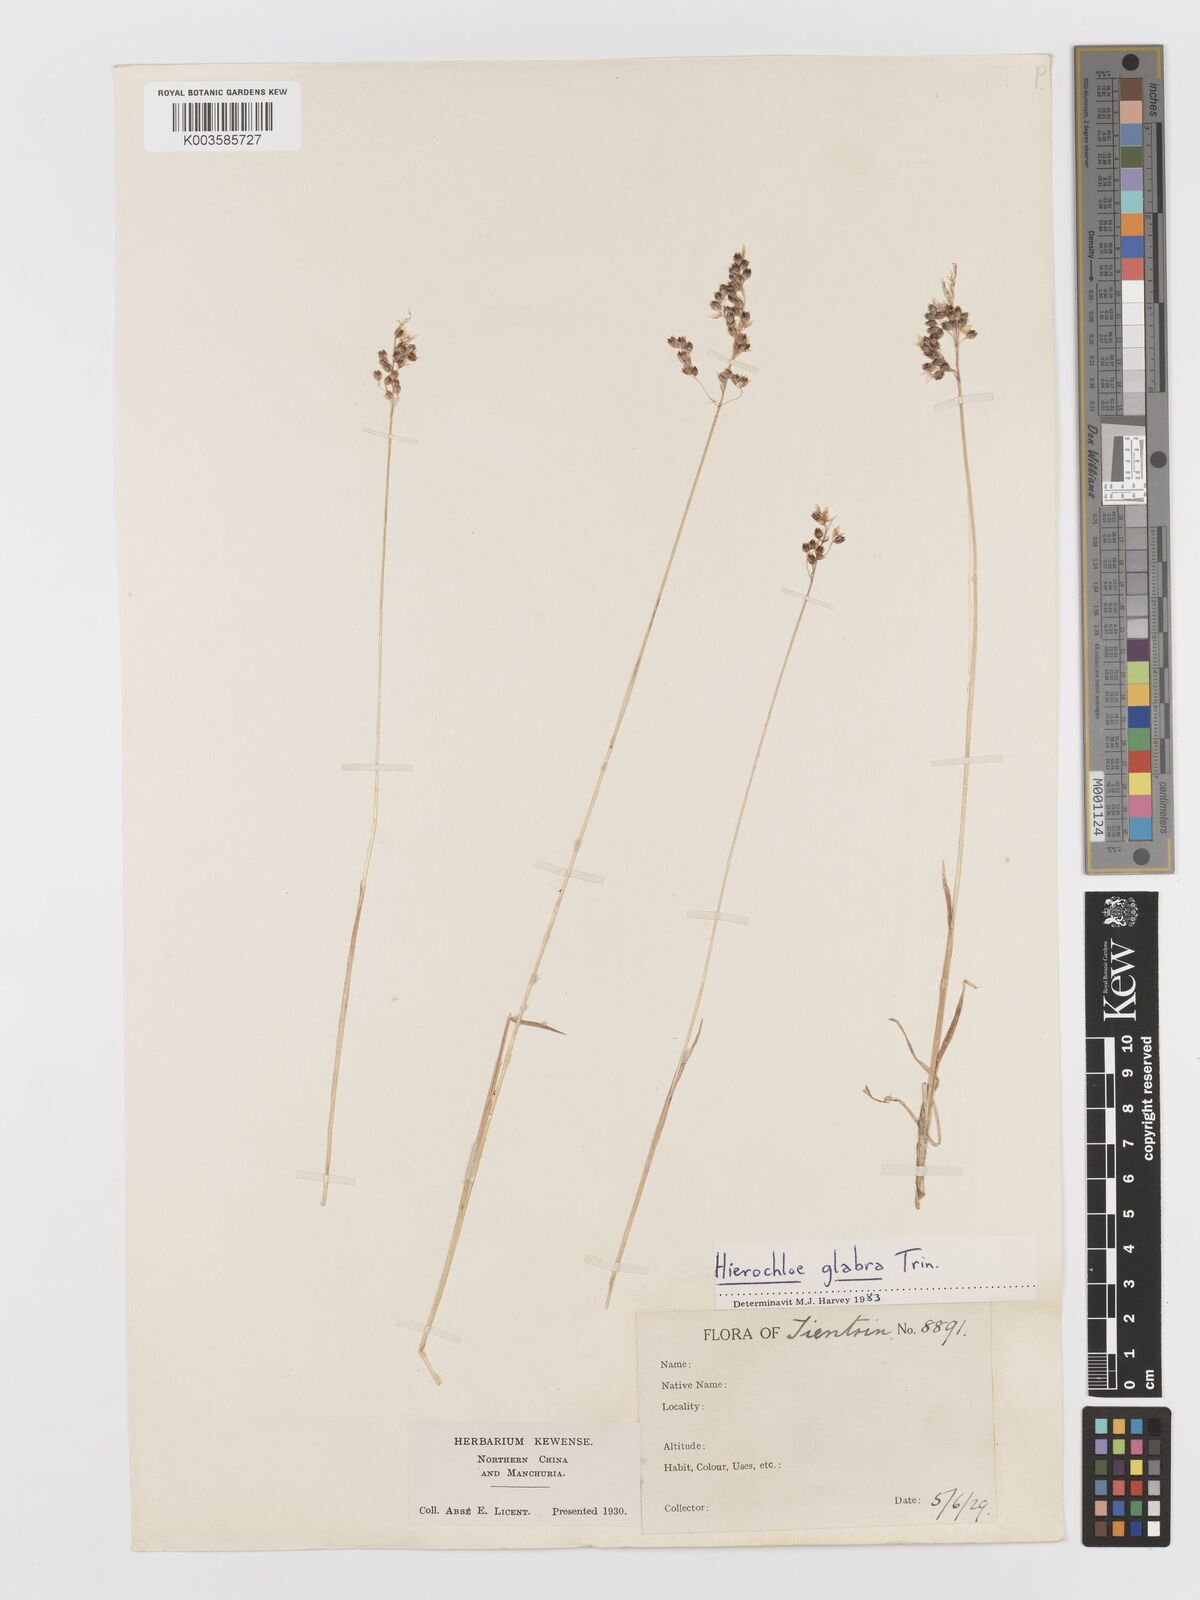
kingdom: Plantae
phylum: Tracheophyta
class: Liliopsida
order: Poales
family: Poaceae
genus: Anthoxanthum
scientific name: Anthoxanthum glabrum
